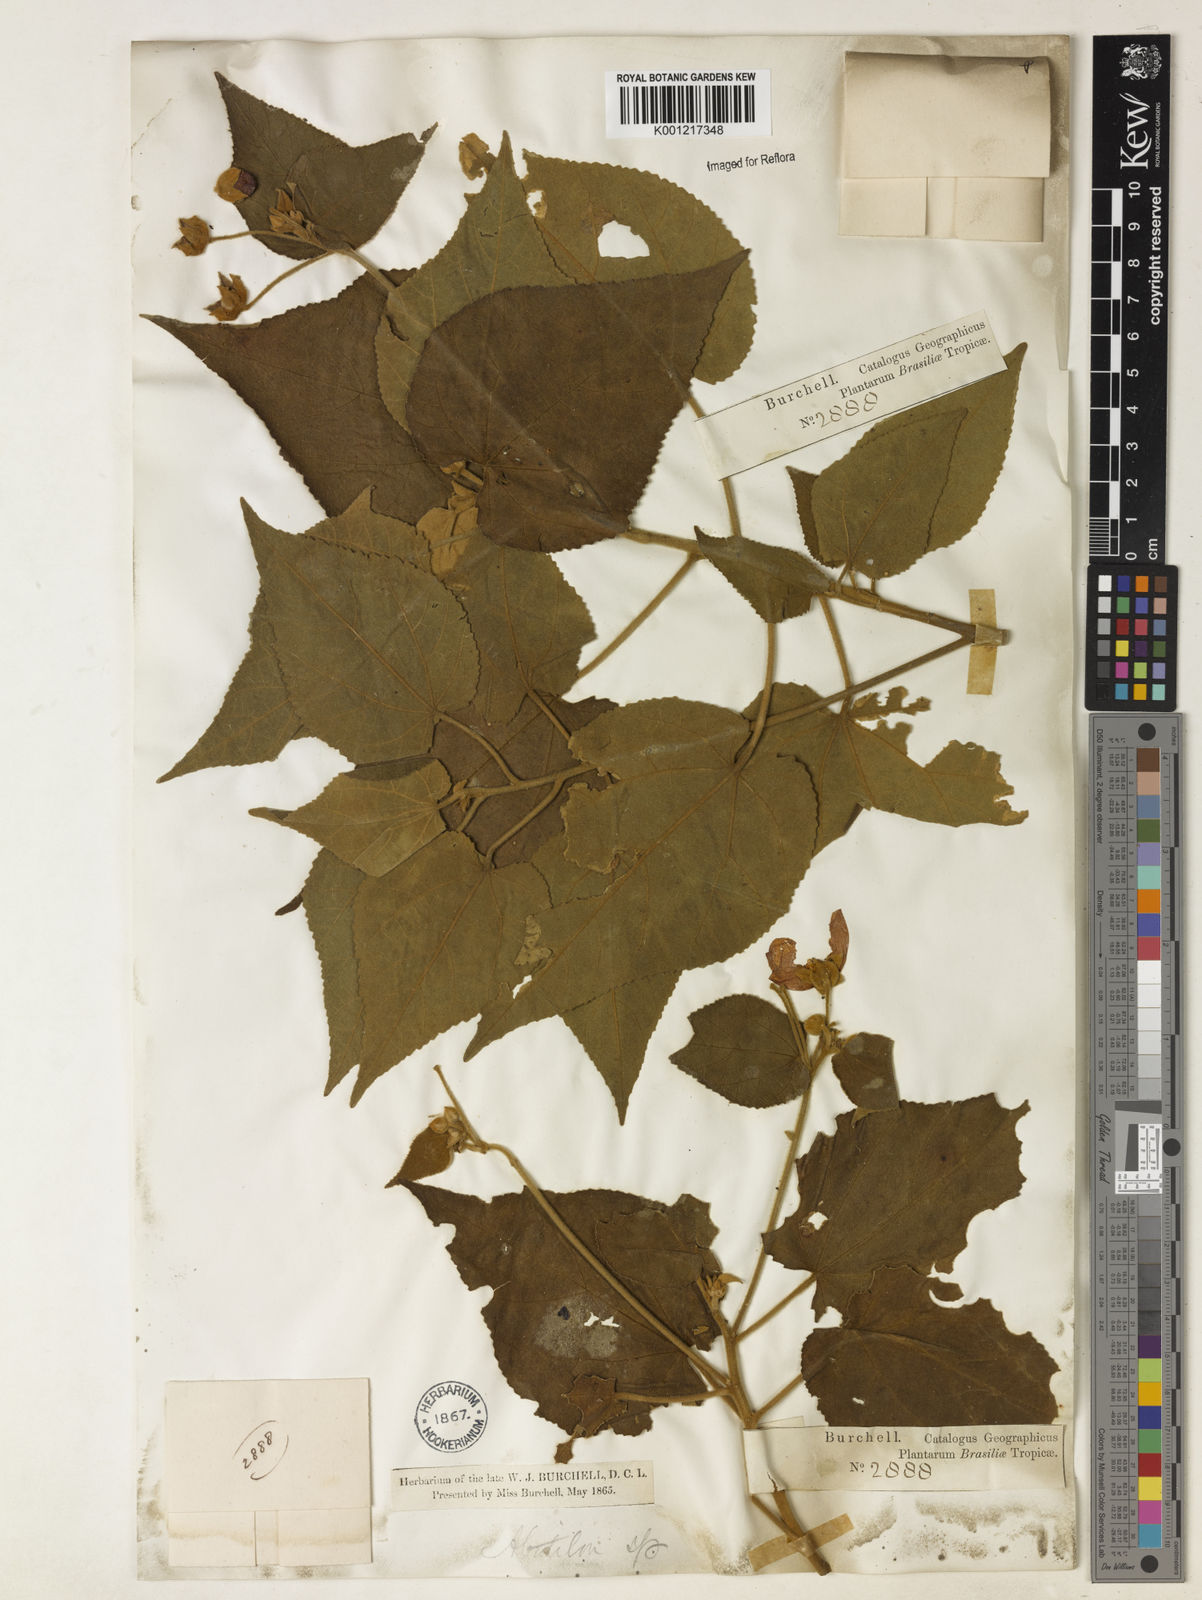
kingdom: Plantae
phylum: Tracheophyta
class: Magnoliopsida
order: Malvales
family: Malvaceae
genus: Bakeridesia
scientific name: Bakeridesia esculenta
